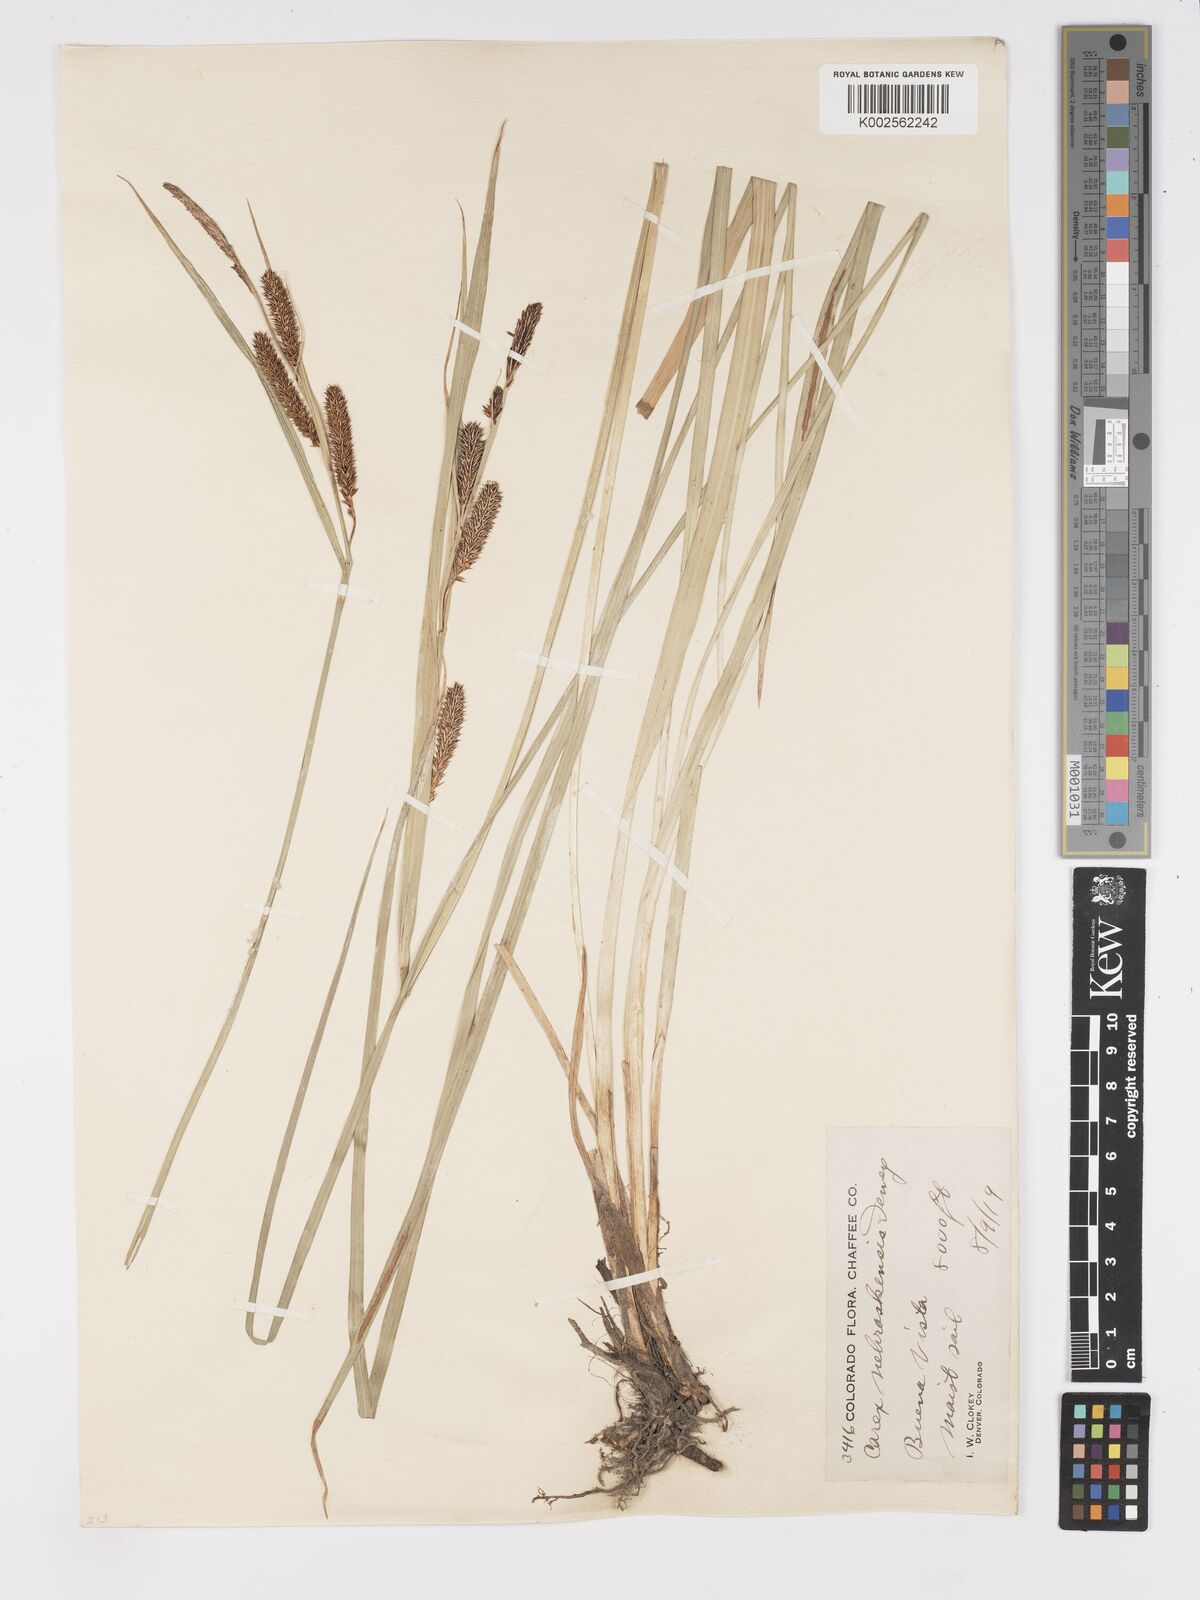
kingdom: Plantae
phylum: Tracheophyta
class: Liliopsida
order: Poales
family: Cyperaceae
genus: Carex
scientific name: Carex nebrascensis
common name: Nebraska sedge
